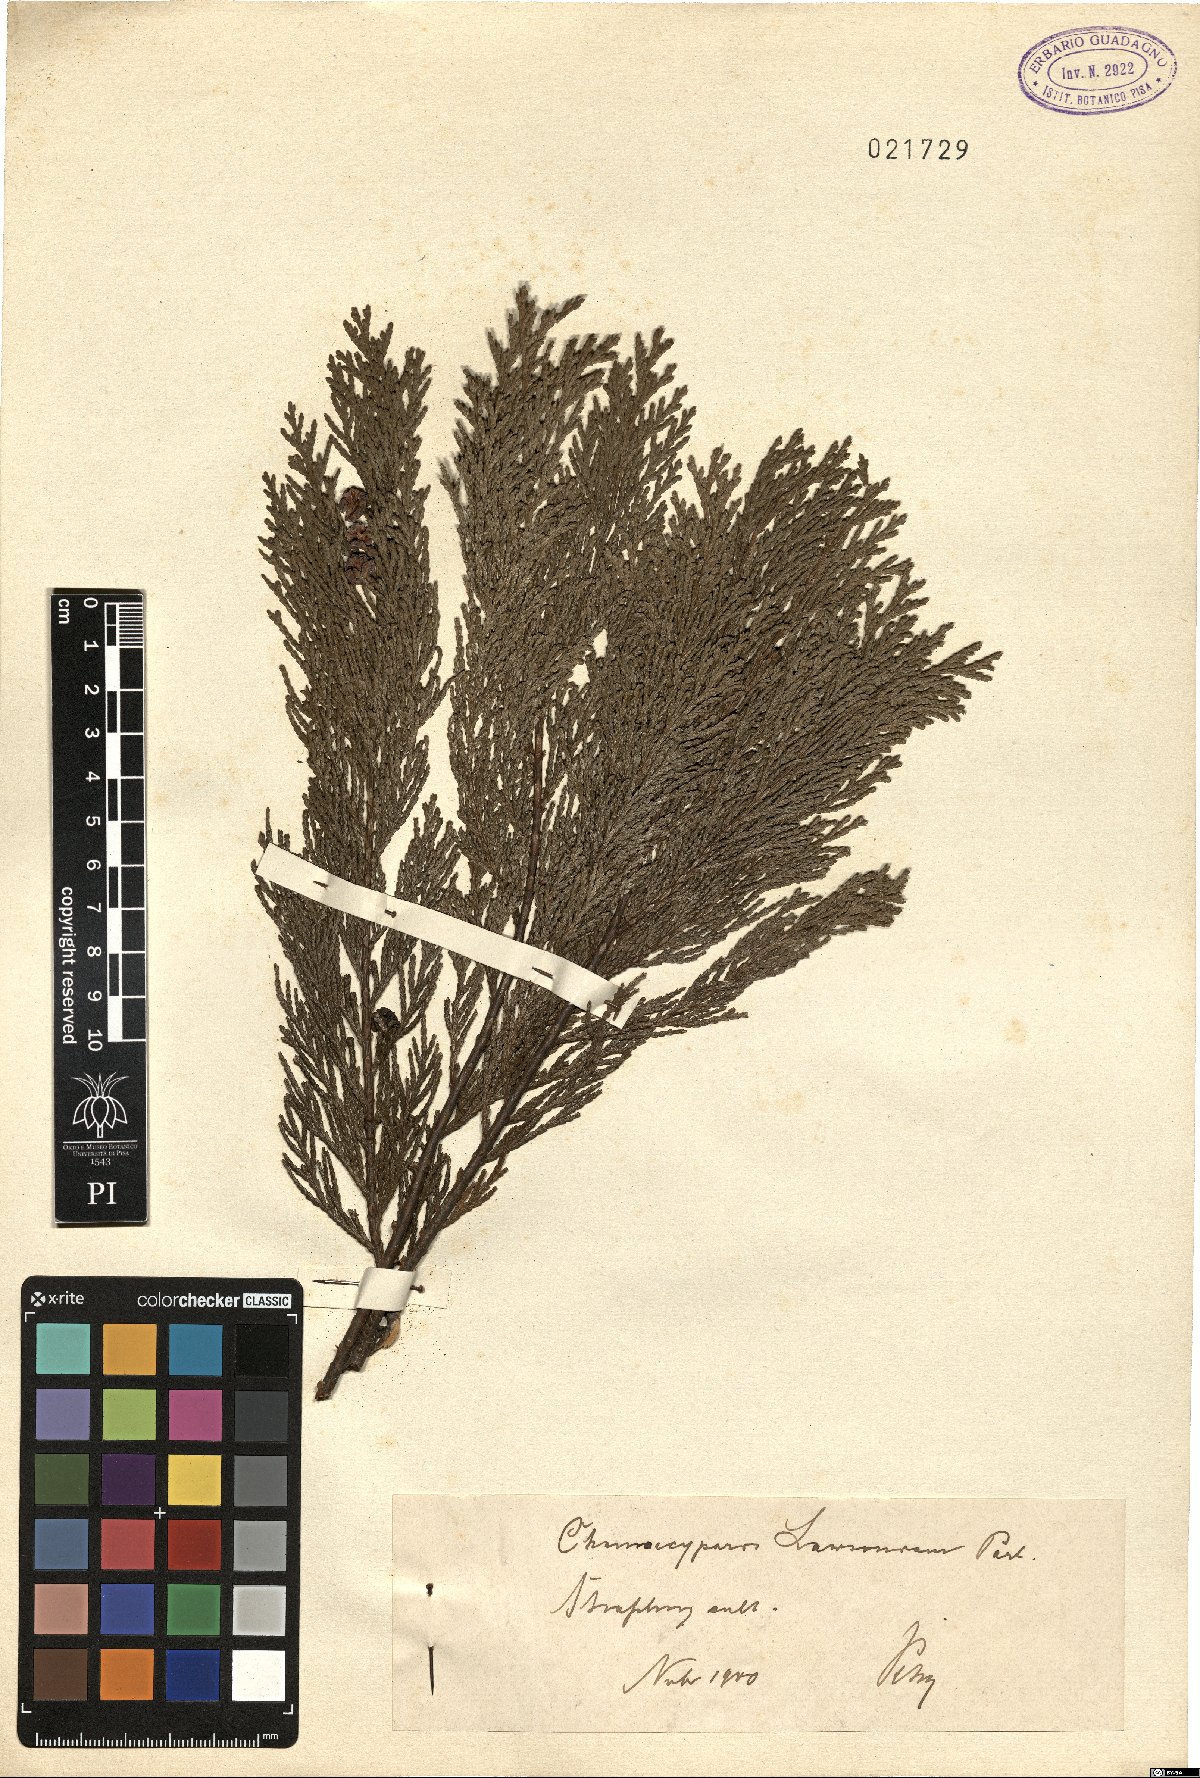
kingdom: Plantae
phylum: Tracheophyta
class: Pinopsida
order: Pinales
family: Cupressaceae
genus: Chamaecyparis
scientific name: Chamaecyparis pisifera
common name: Sawara cypress
